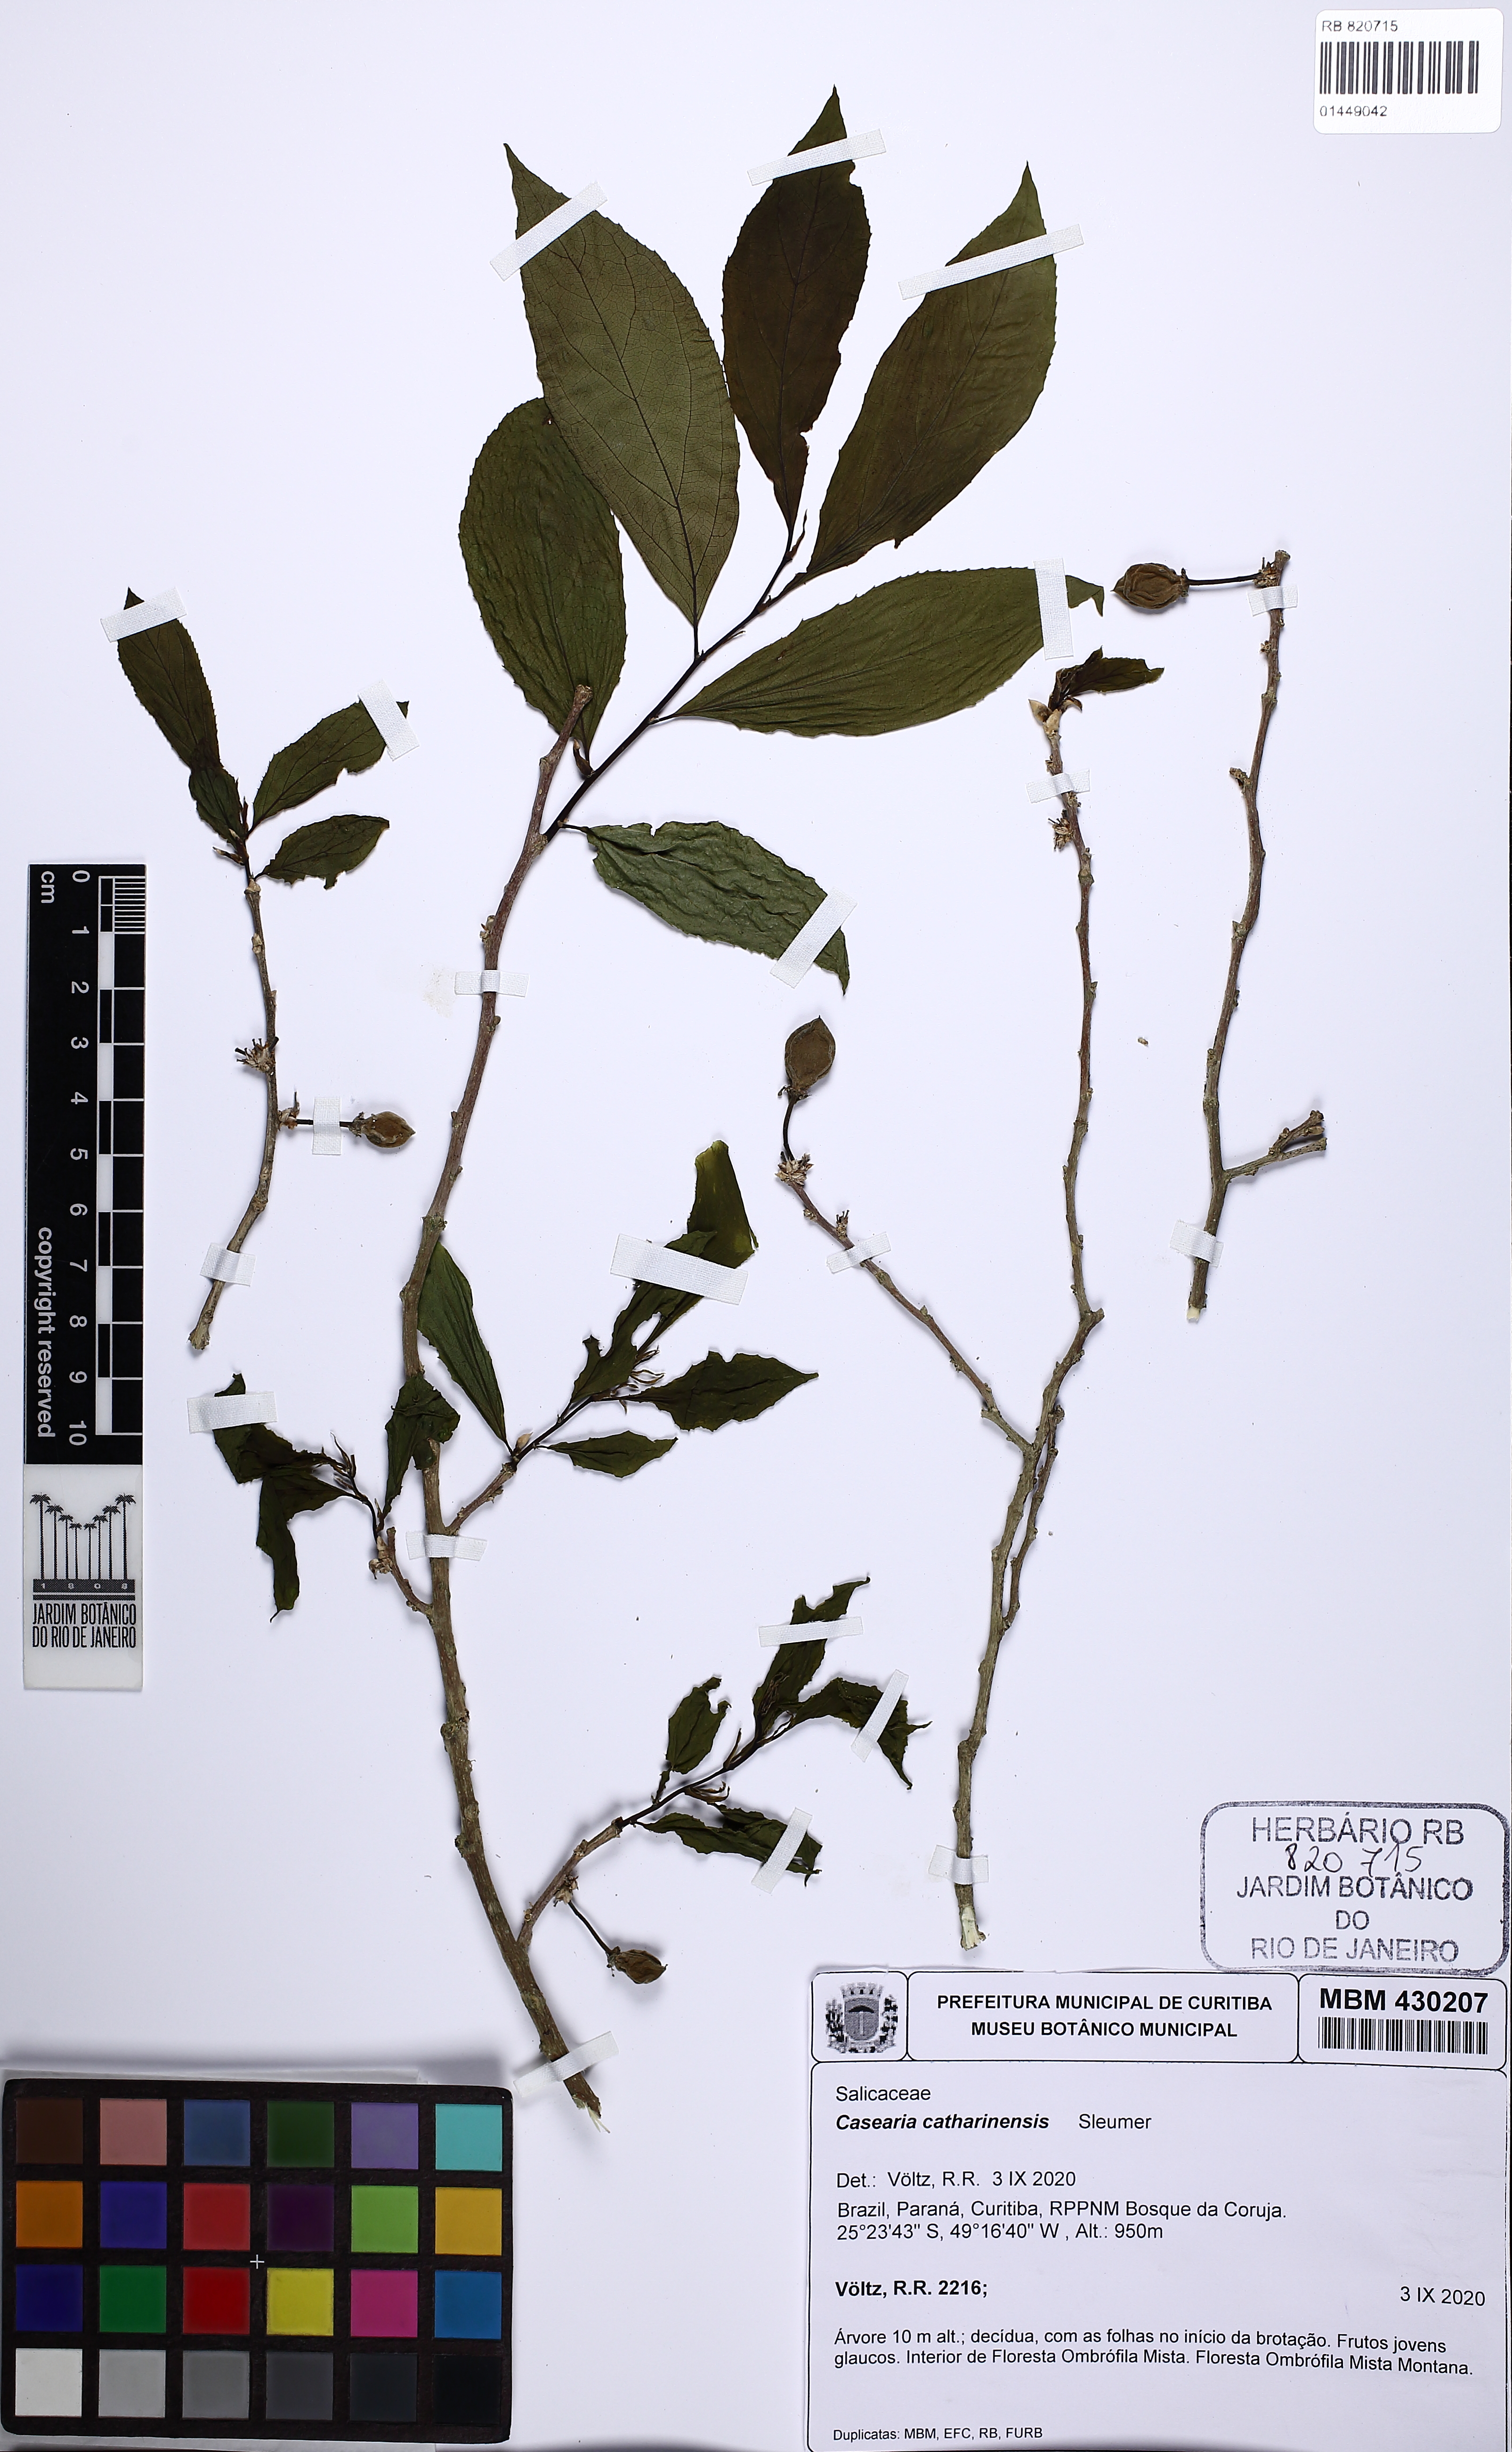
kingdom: Plantae
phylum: Tracheophyta
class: Magnoliopsida
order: Malpighiales
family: Salicaceae
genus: Casearia
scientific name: Casearia catharinensis
